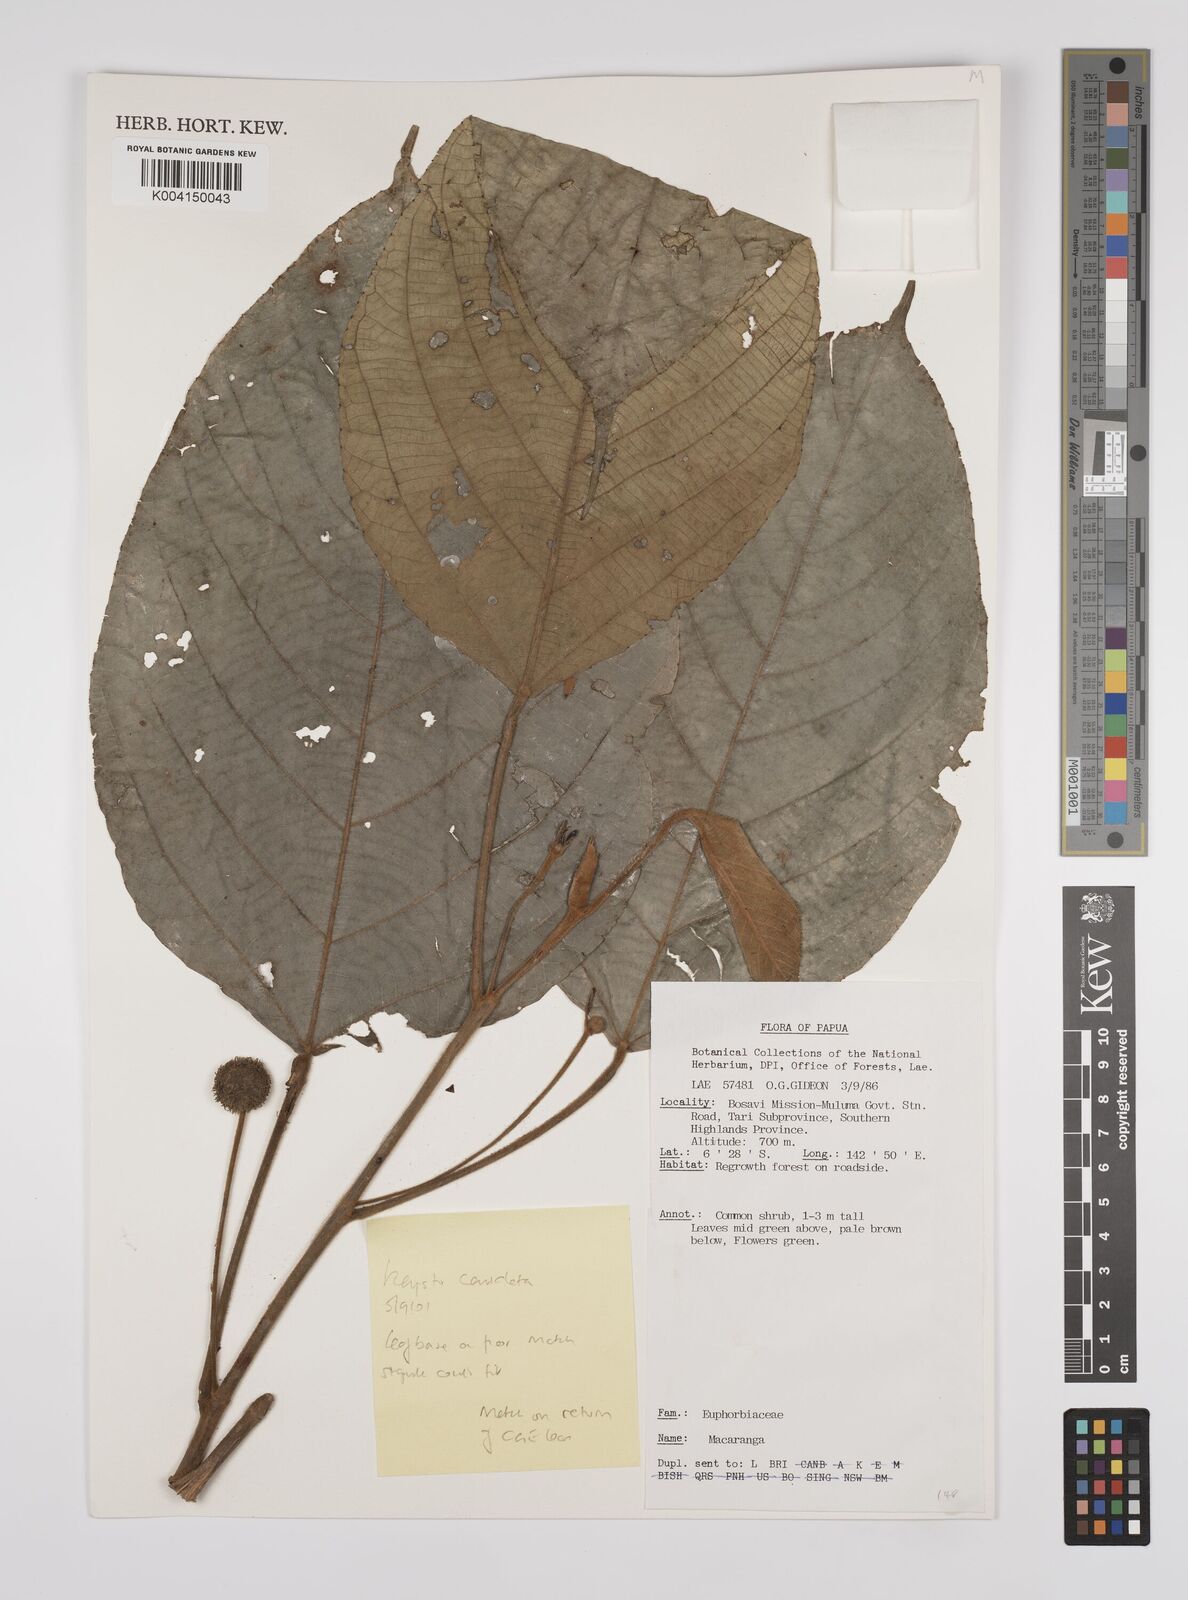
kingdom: Plantae
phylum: Tracheophyta
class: Magnoliopsida
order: Malpighiales
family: Euphorbiaceae
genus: Macaranga
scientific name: Macaranga
